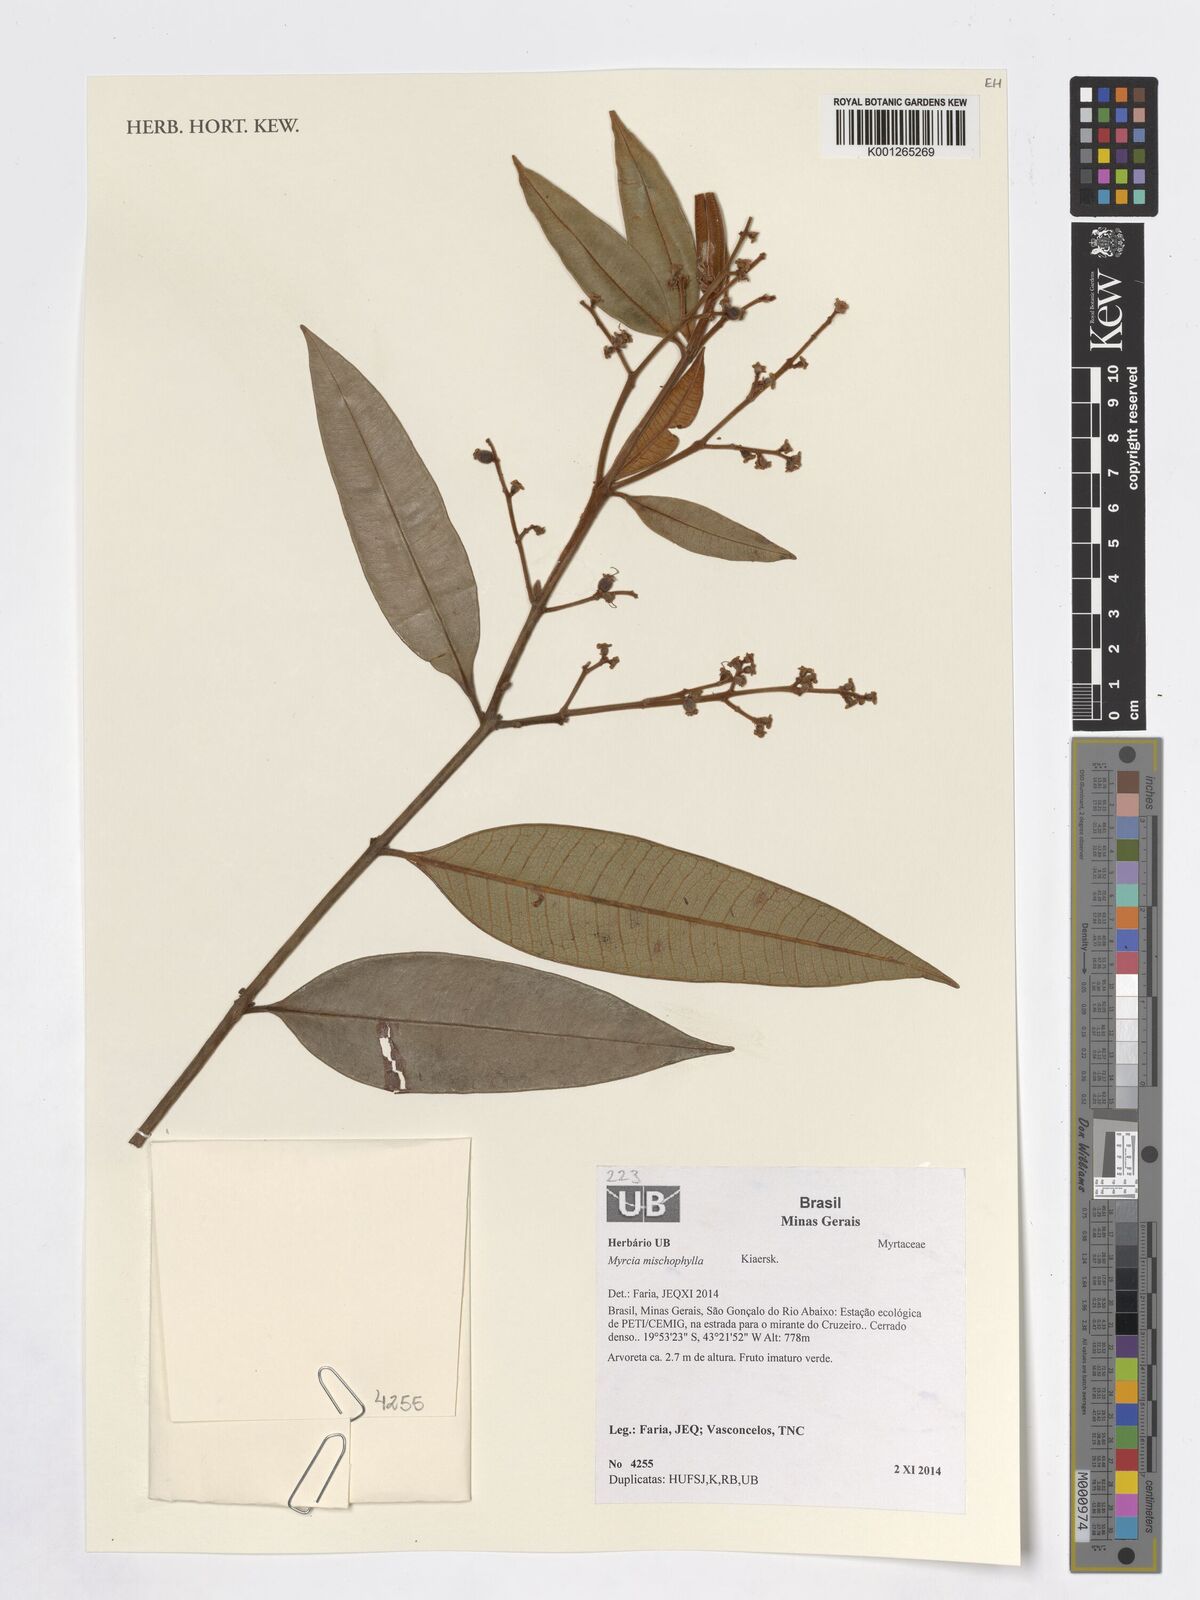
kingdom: Plantae
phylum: Tracheophyta
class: Magnoliopsida
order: Myrtales
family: Myrtaceae
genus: Myrcia
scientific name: Myrcia mischophylla
